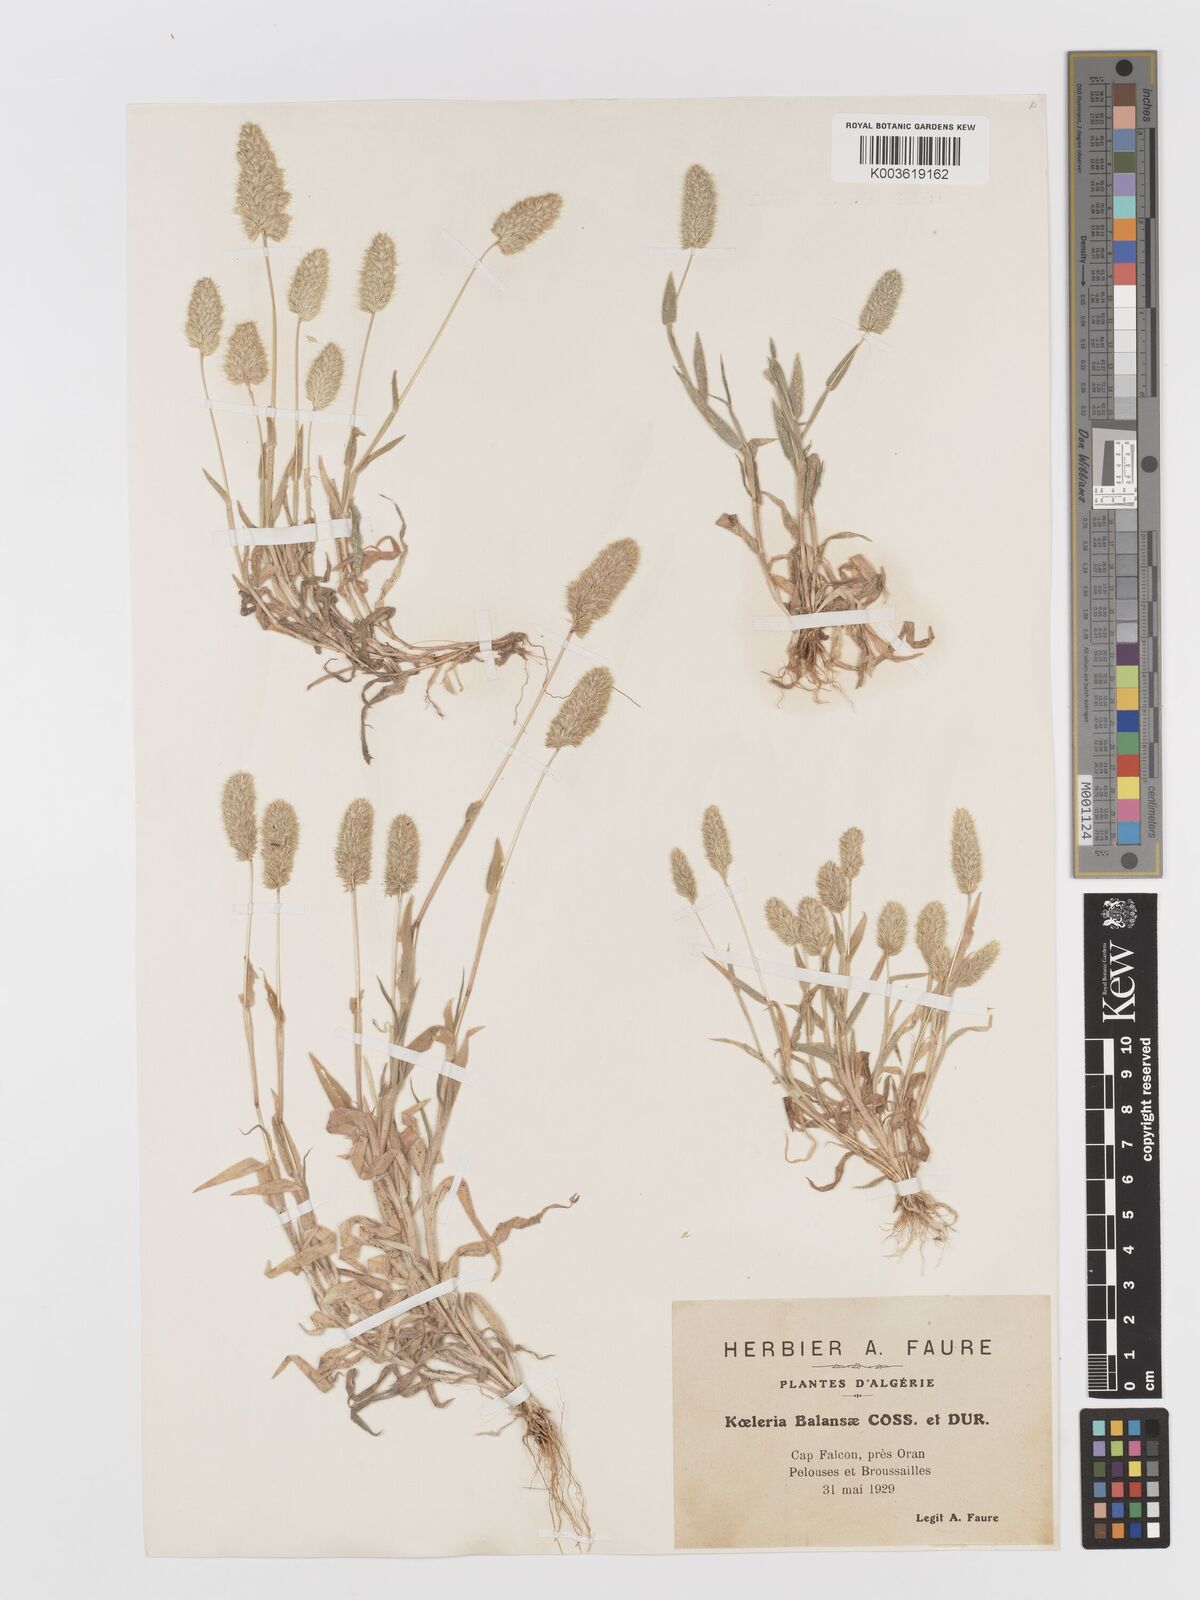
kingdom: Plantae
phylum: Tracheophyta
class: Liliopsida
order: Poales
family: Poaceae
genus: Rostraria
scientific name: Rostraria balansae
